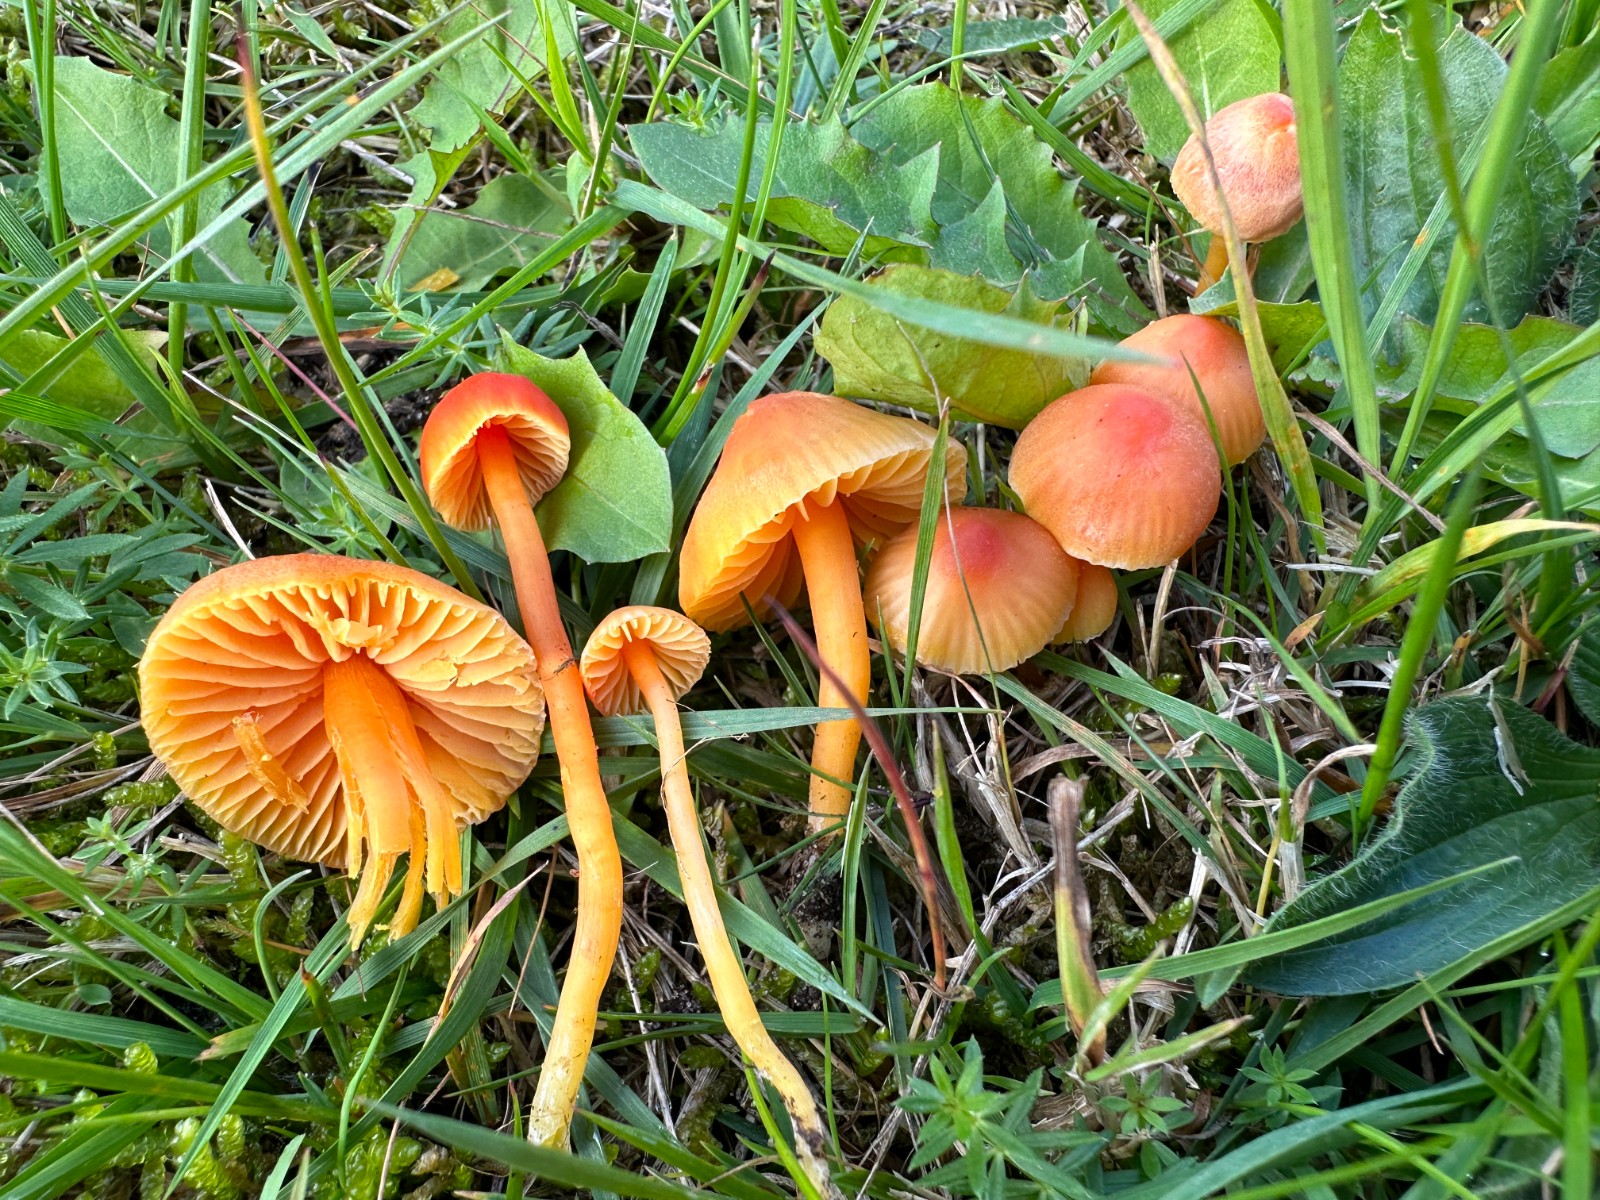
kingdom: Fungi
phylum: Basidiomycota
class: Agaricomycetes
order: Agaricales
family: Hygrophoraceae
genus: Hygrocybe
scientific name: Hygrocybe mucronella
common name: bitter vokshat
